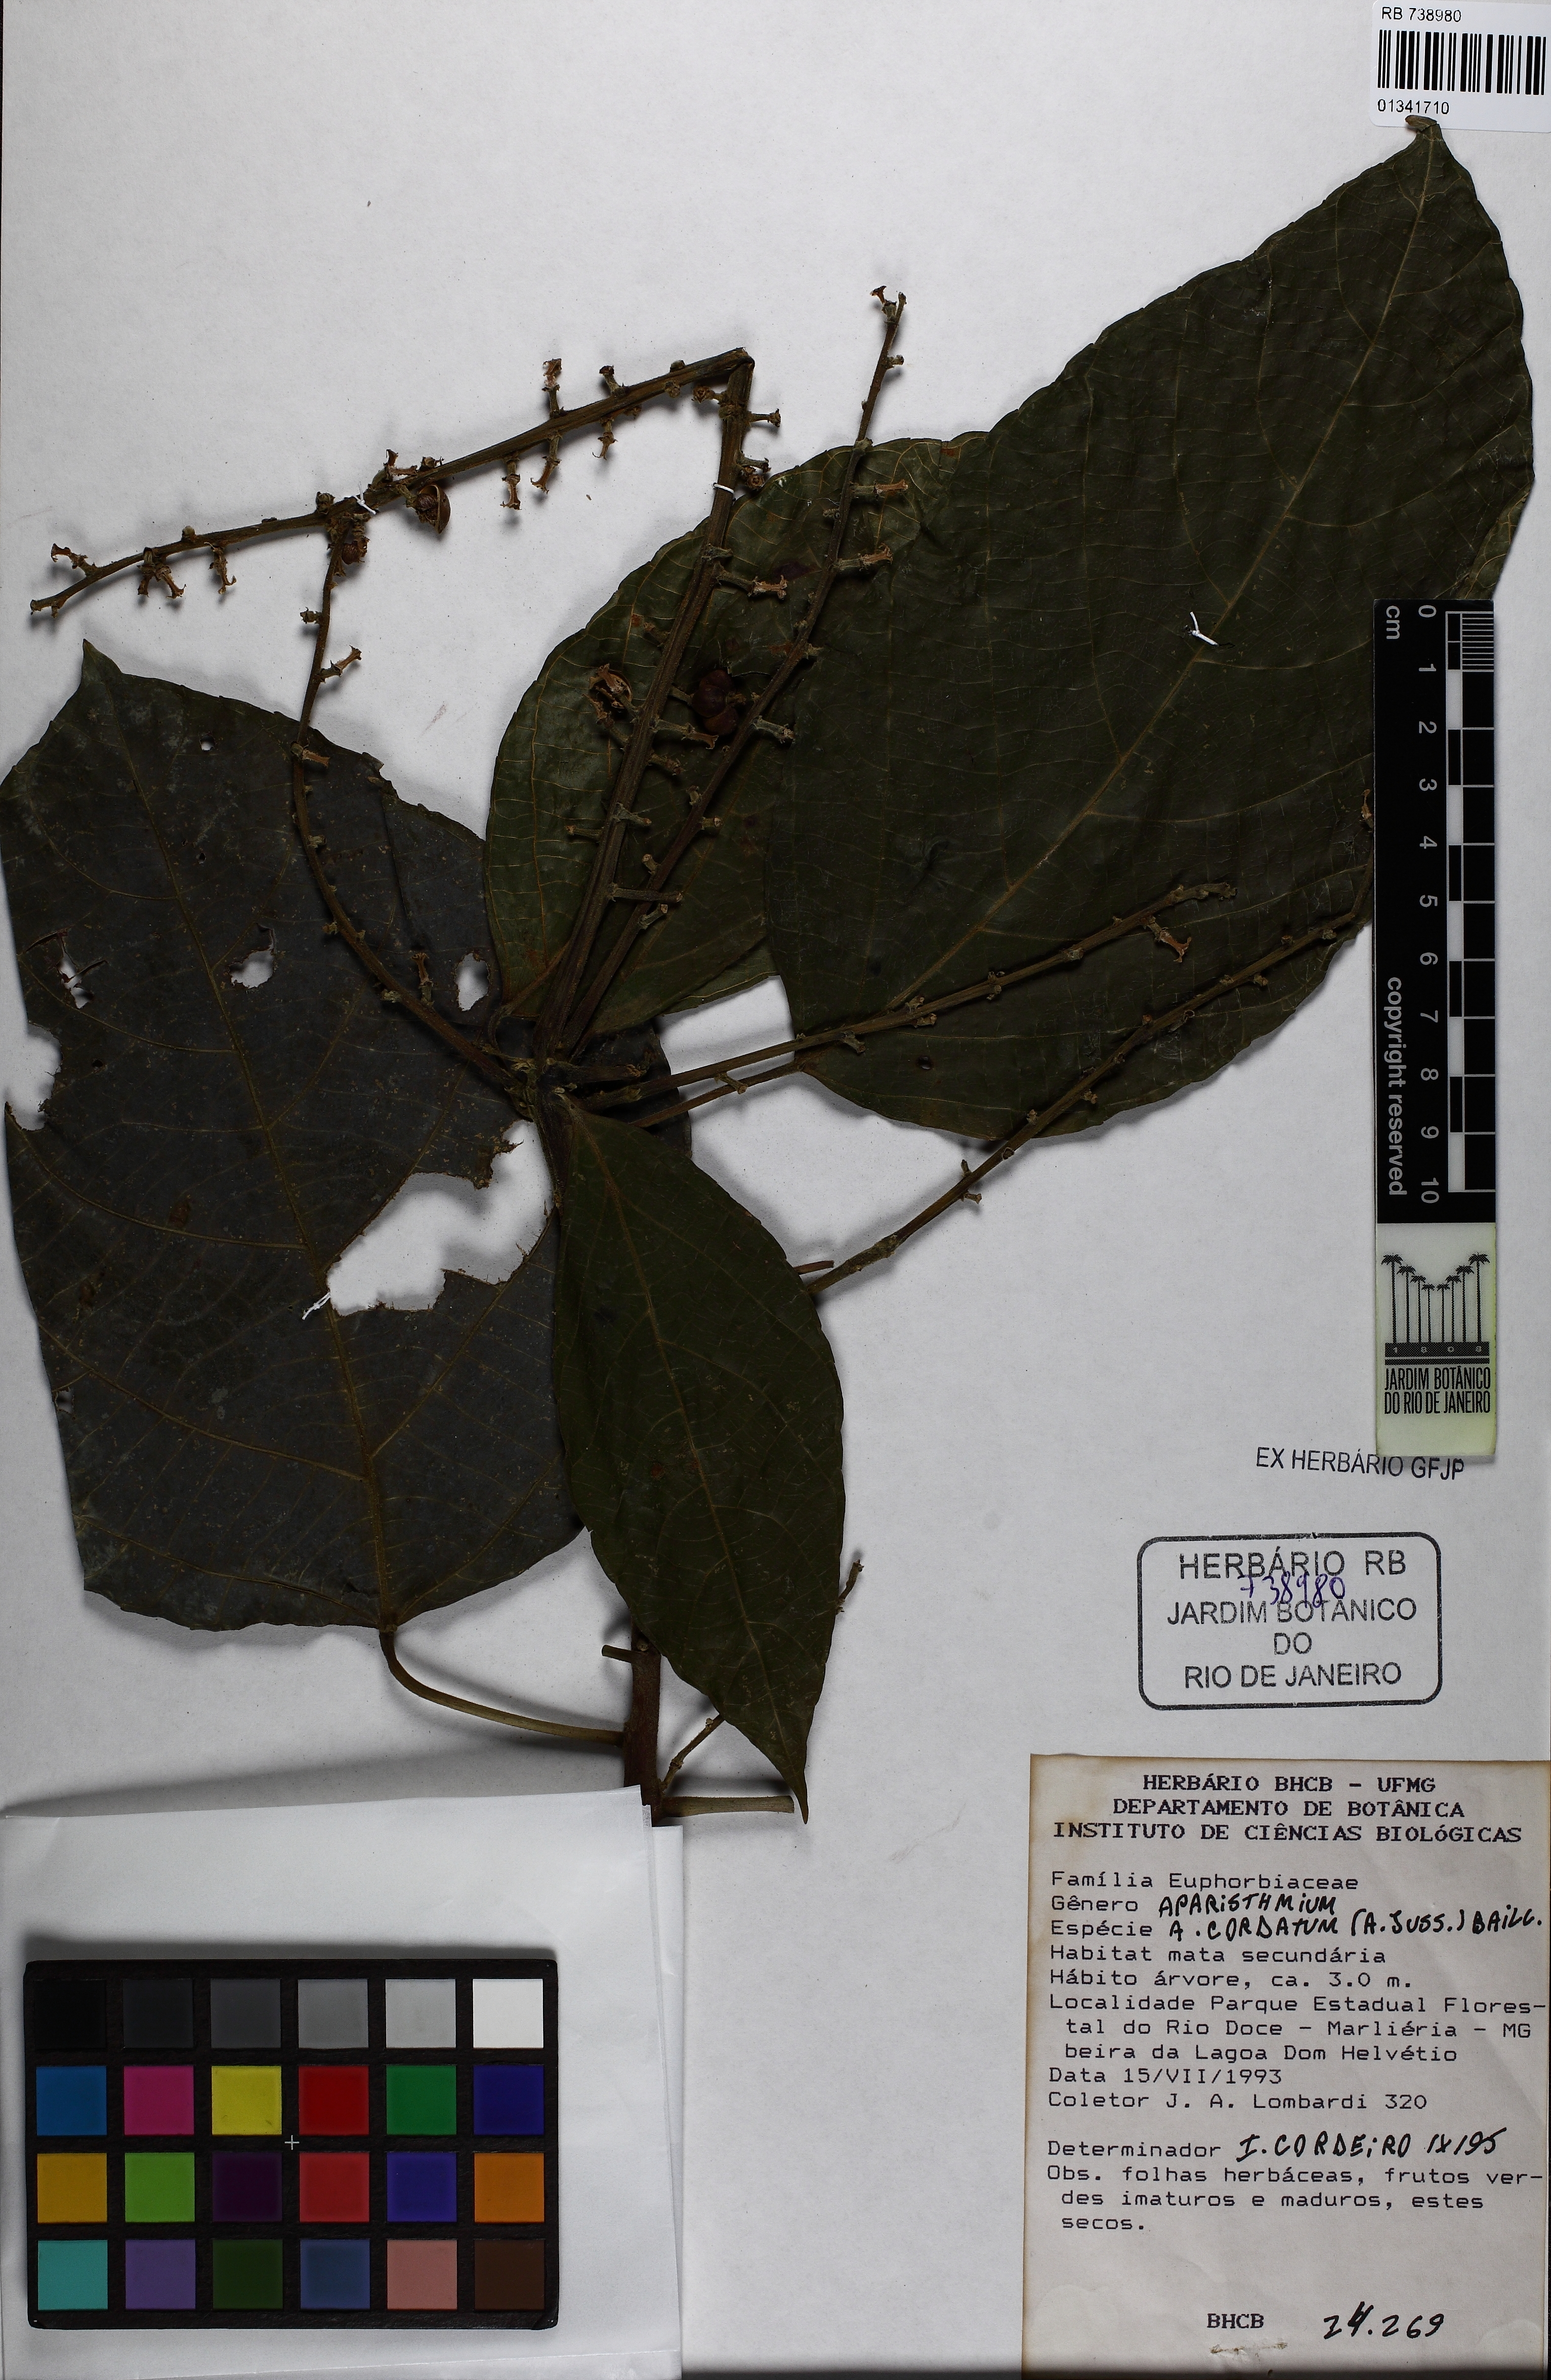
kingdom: Plantae
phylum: Tracheophyta
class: Magnoliopsida
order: Malpighiales
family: Euphorbiaceae
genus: Aparisthmium
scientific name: Aparisthmium cordatum
